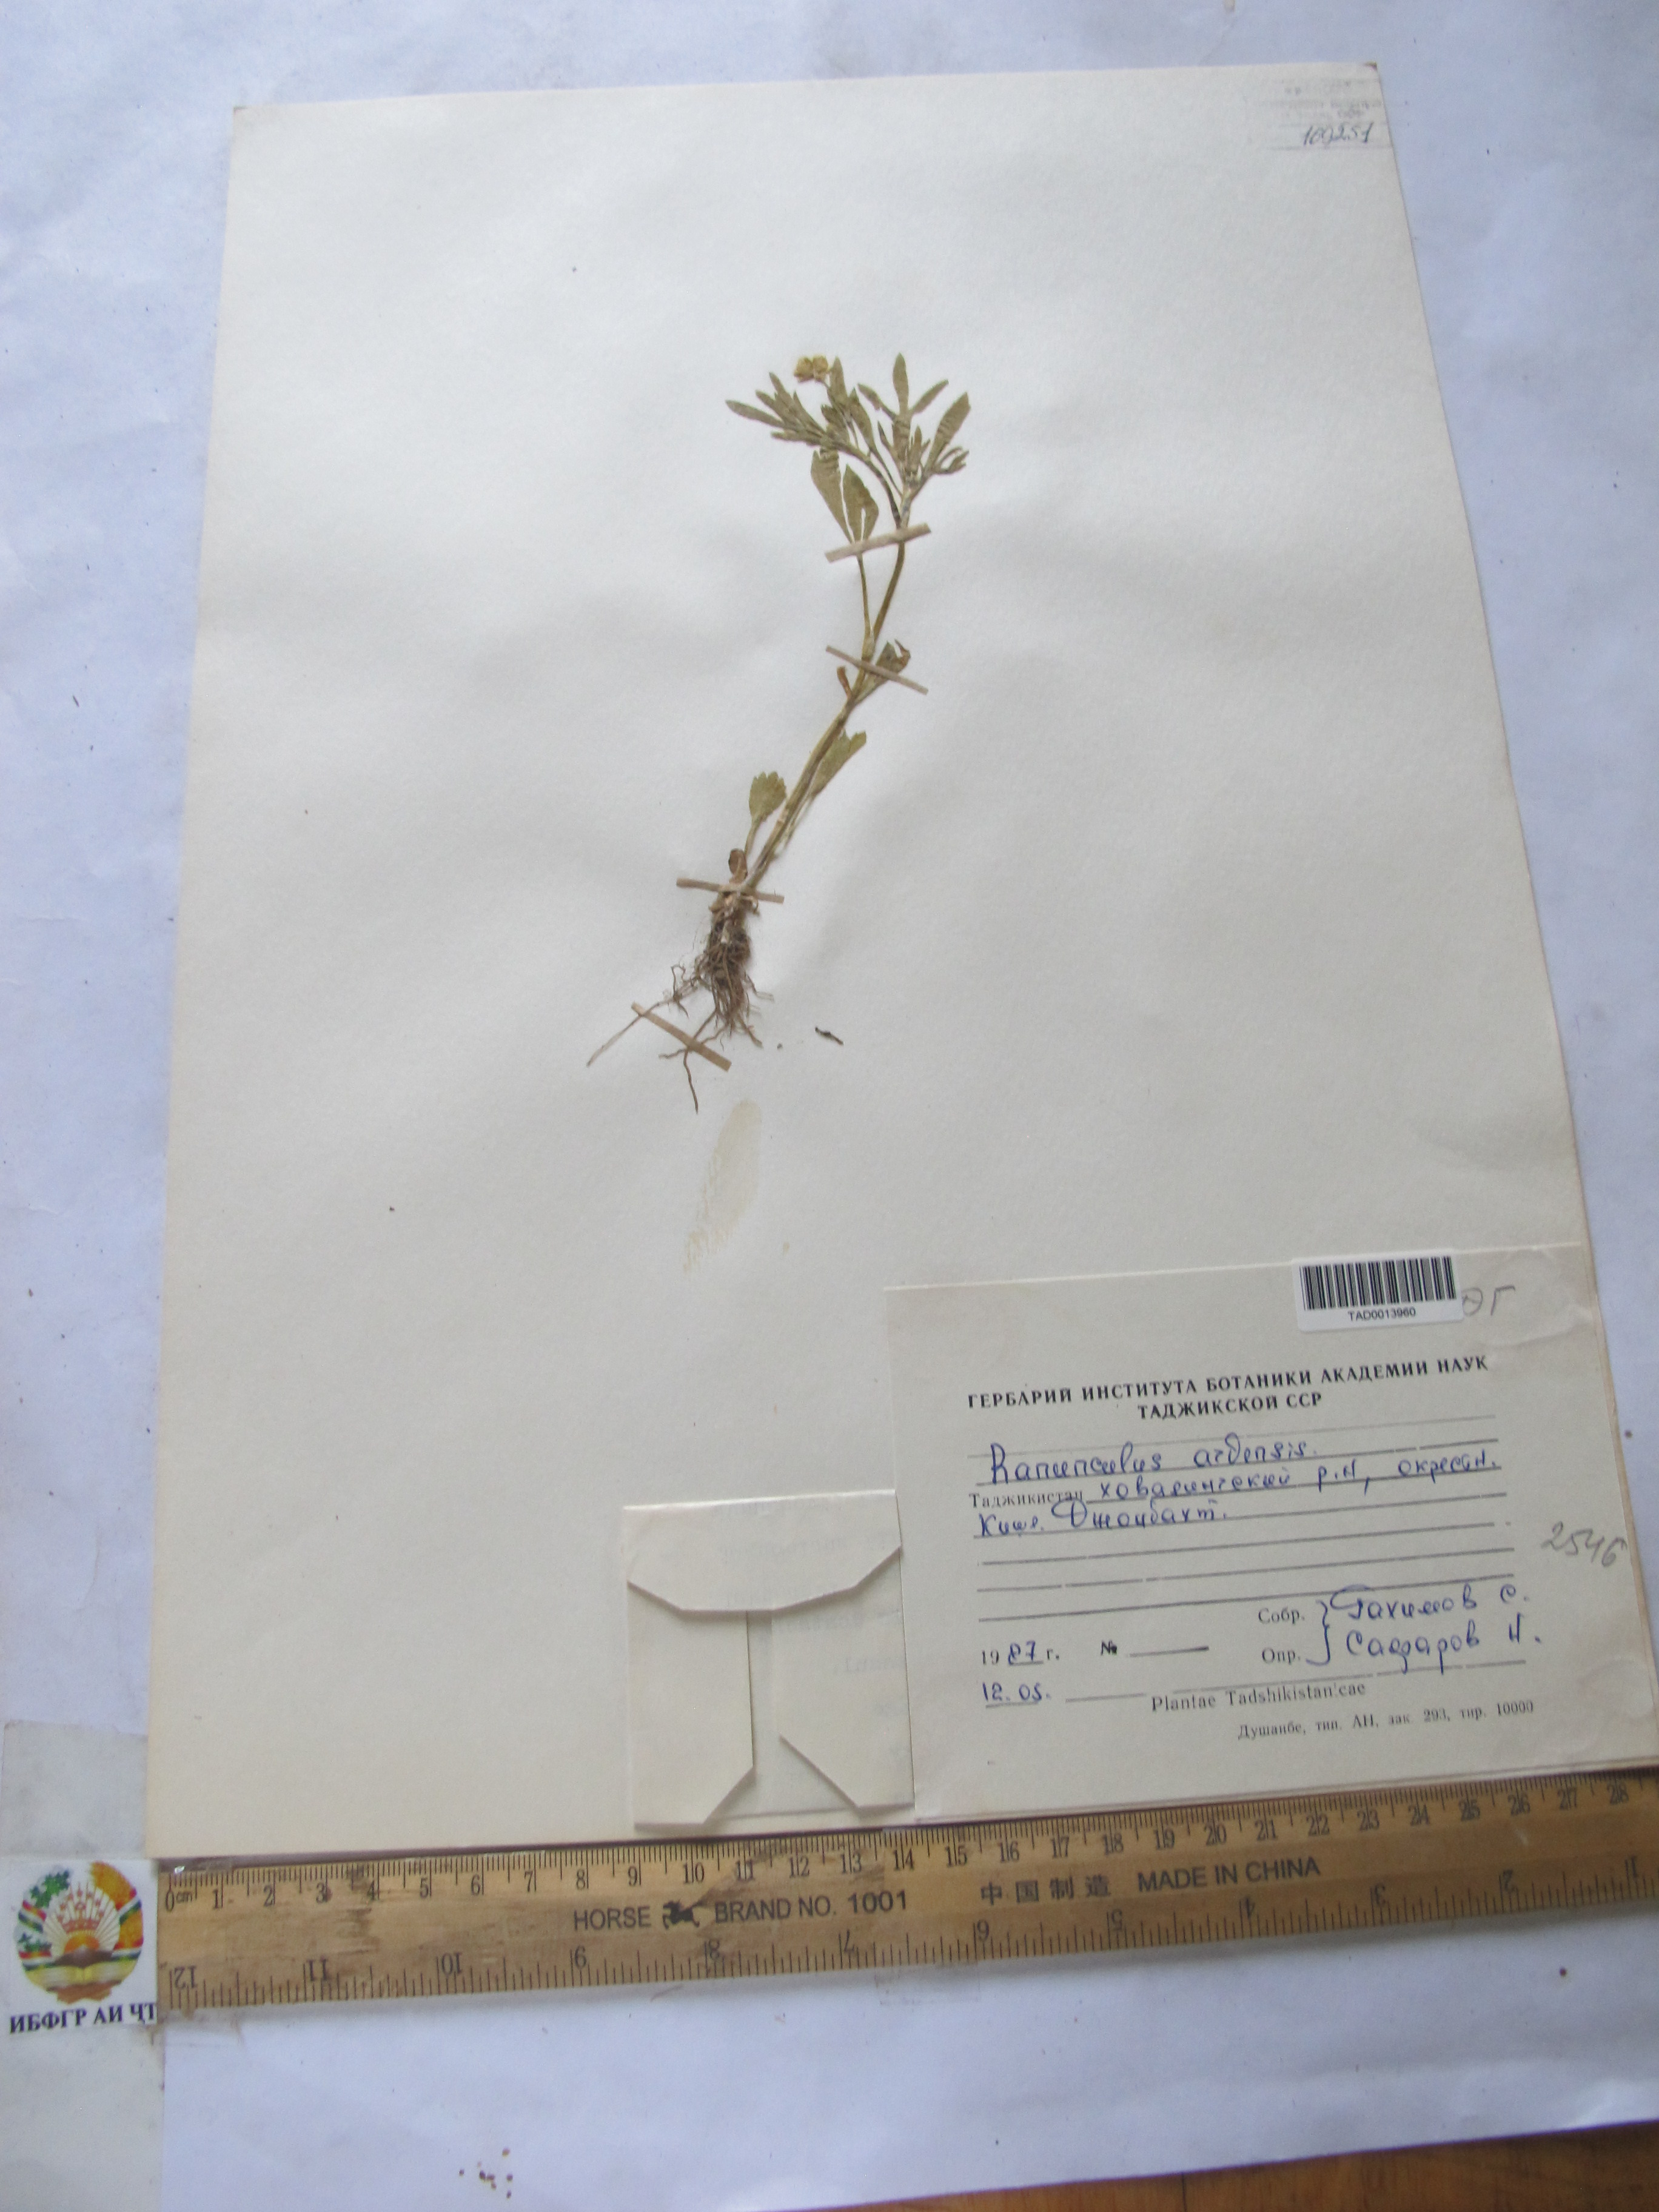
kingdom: Plantae
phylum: Tracheophyta
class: Magnoliopsida
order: Ranunculales
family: Ranunculaceae
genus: Ranunculus
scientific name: Ranunculus alaiensis
